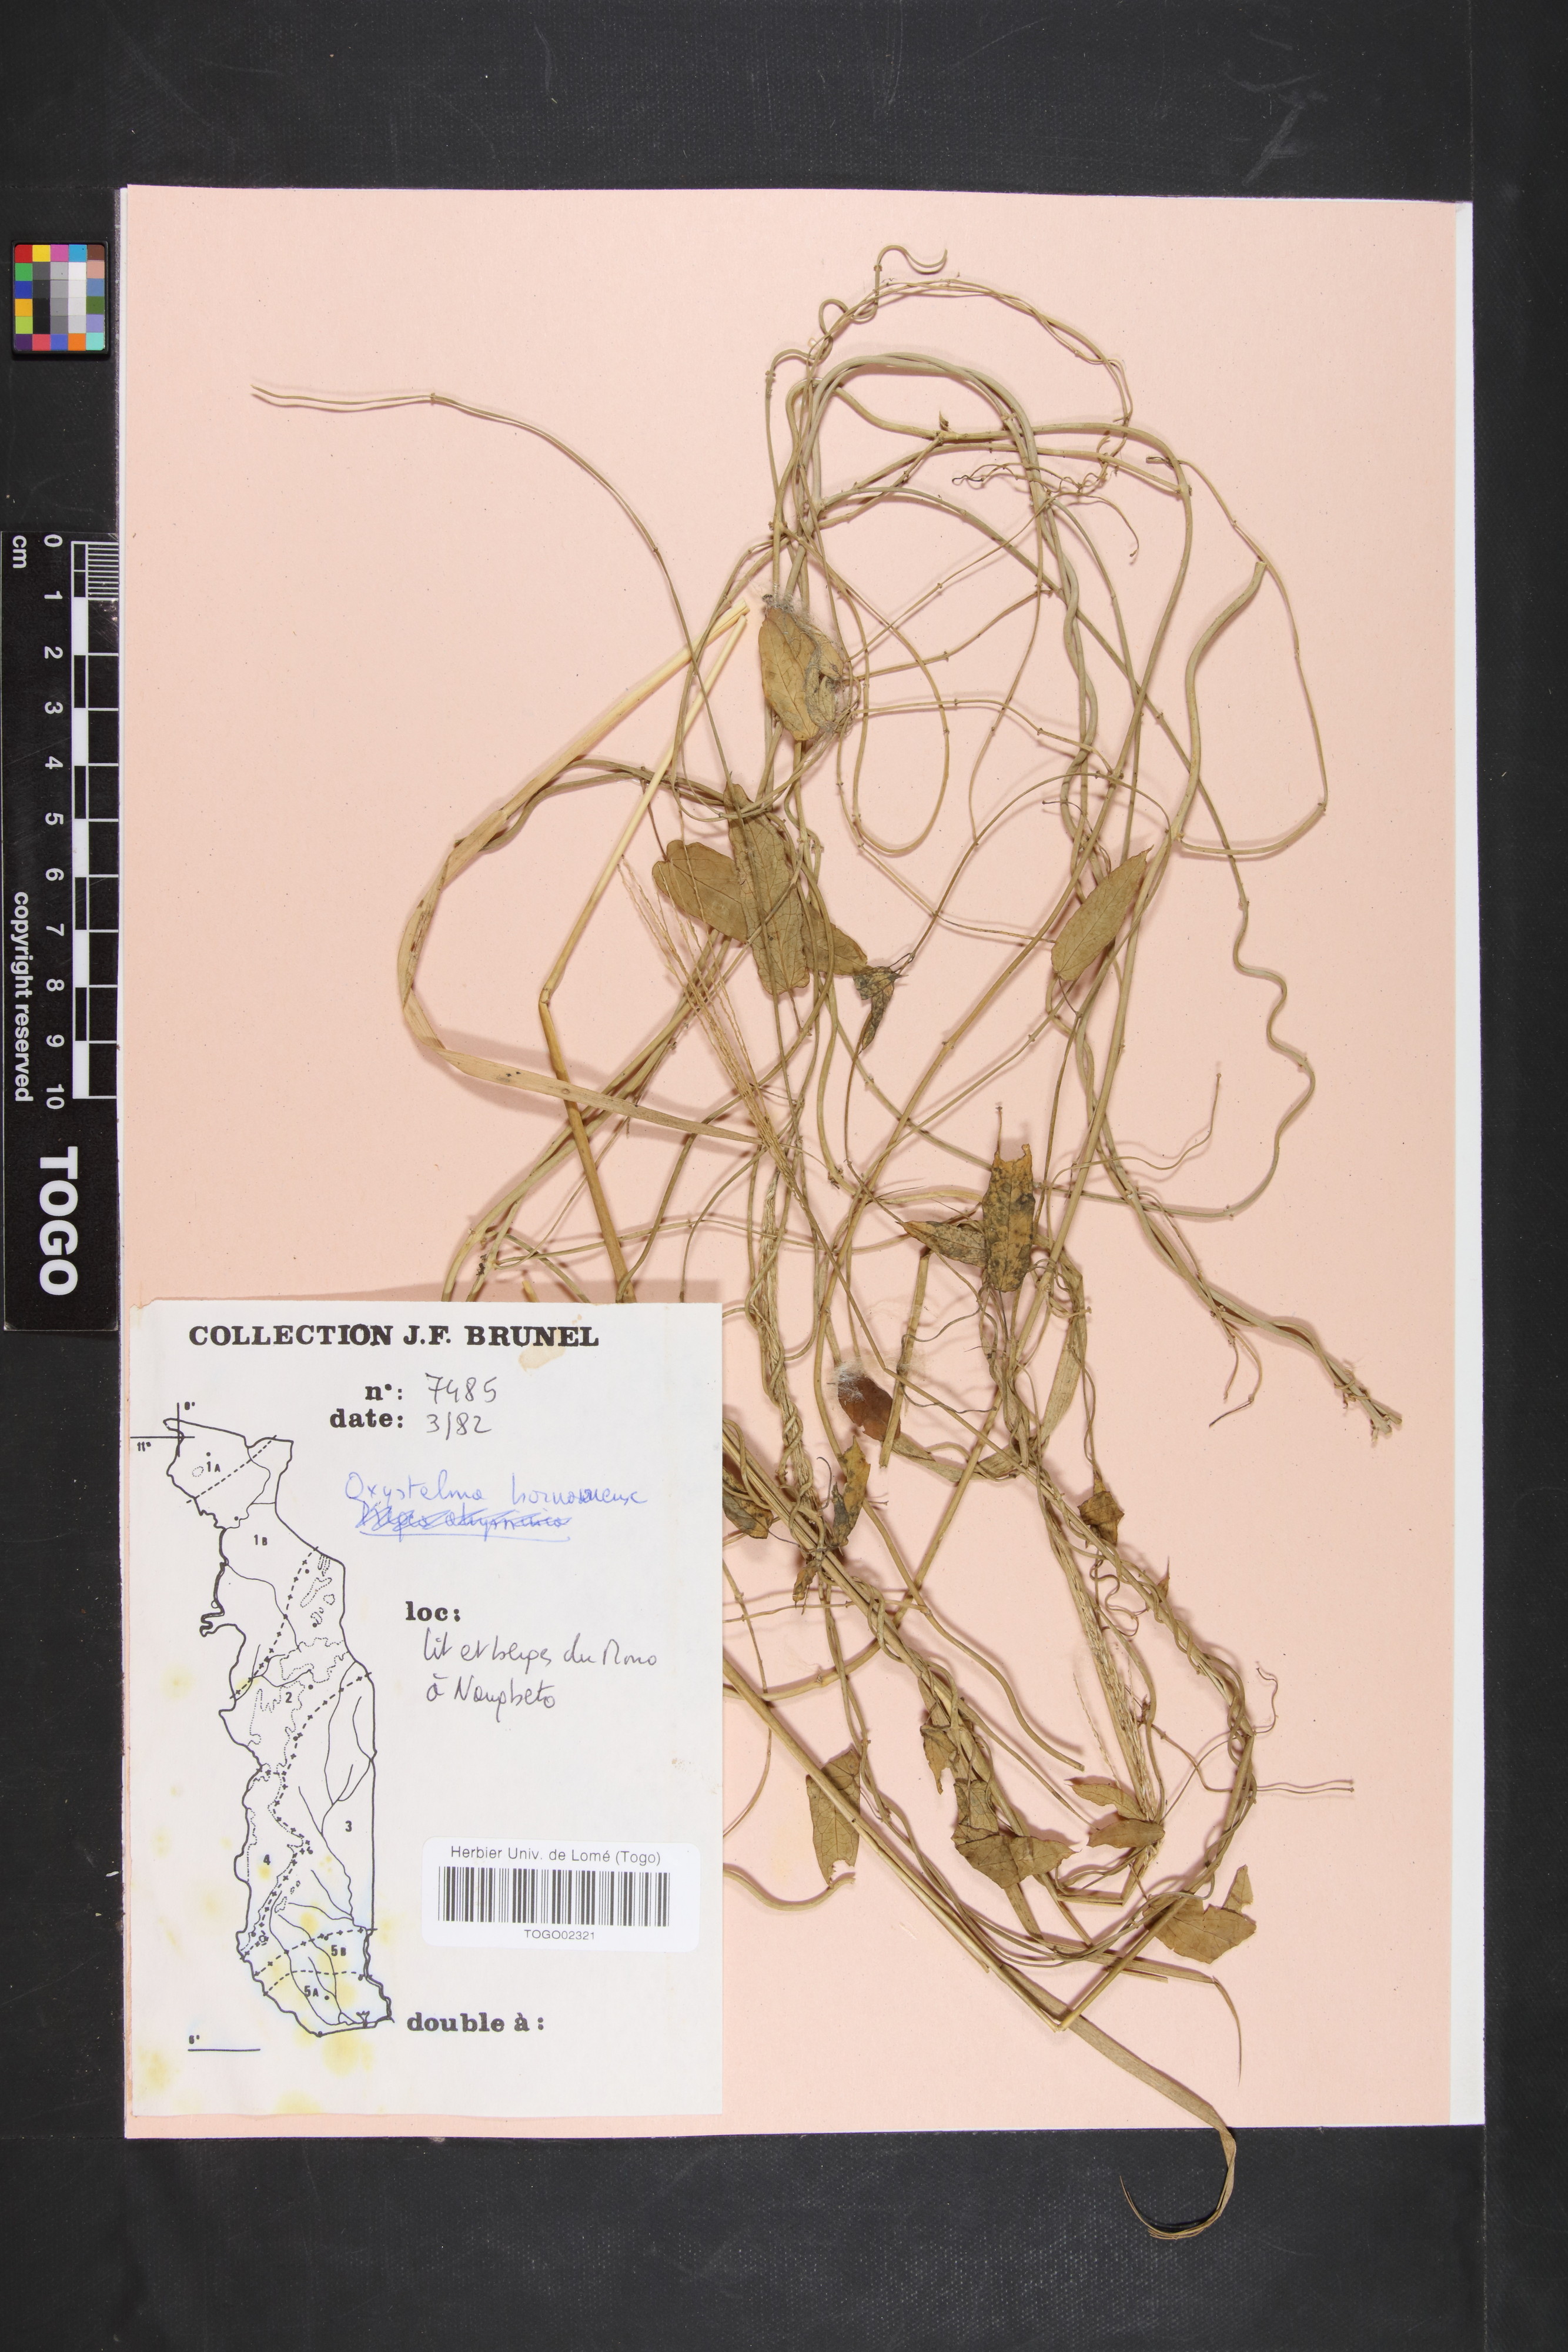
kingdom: Plantae
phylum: Tracheophyta
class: Magnoliopsida
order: Gentianales
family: Apocynaceae
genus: Oxystelma
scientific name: Oxystelma bornouense
